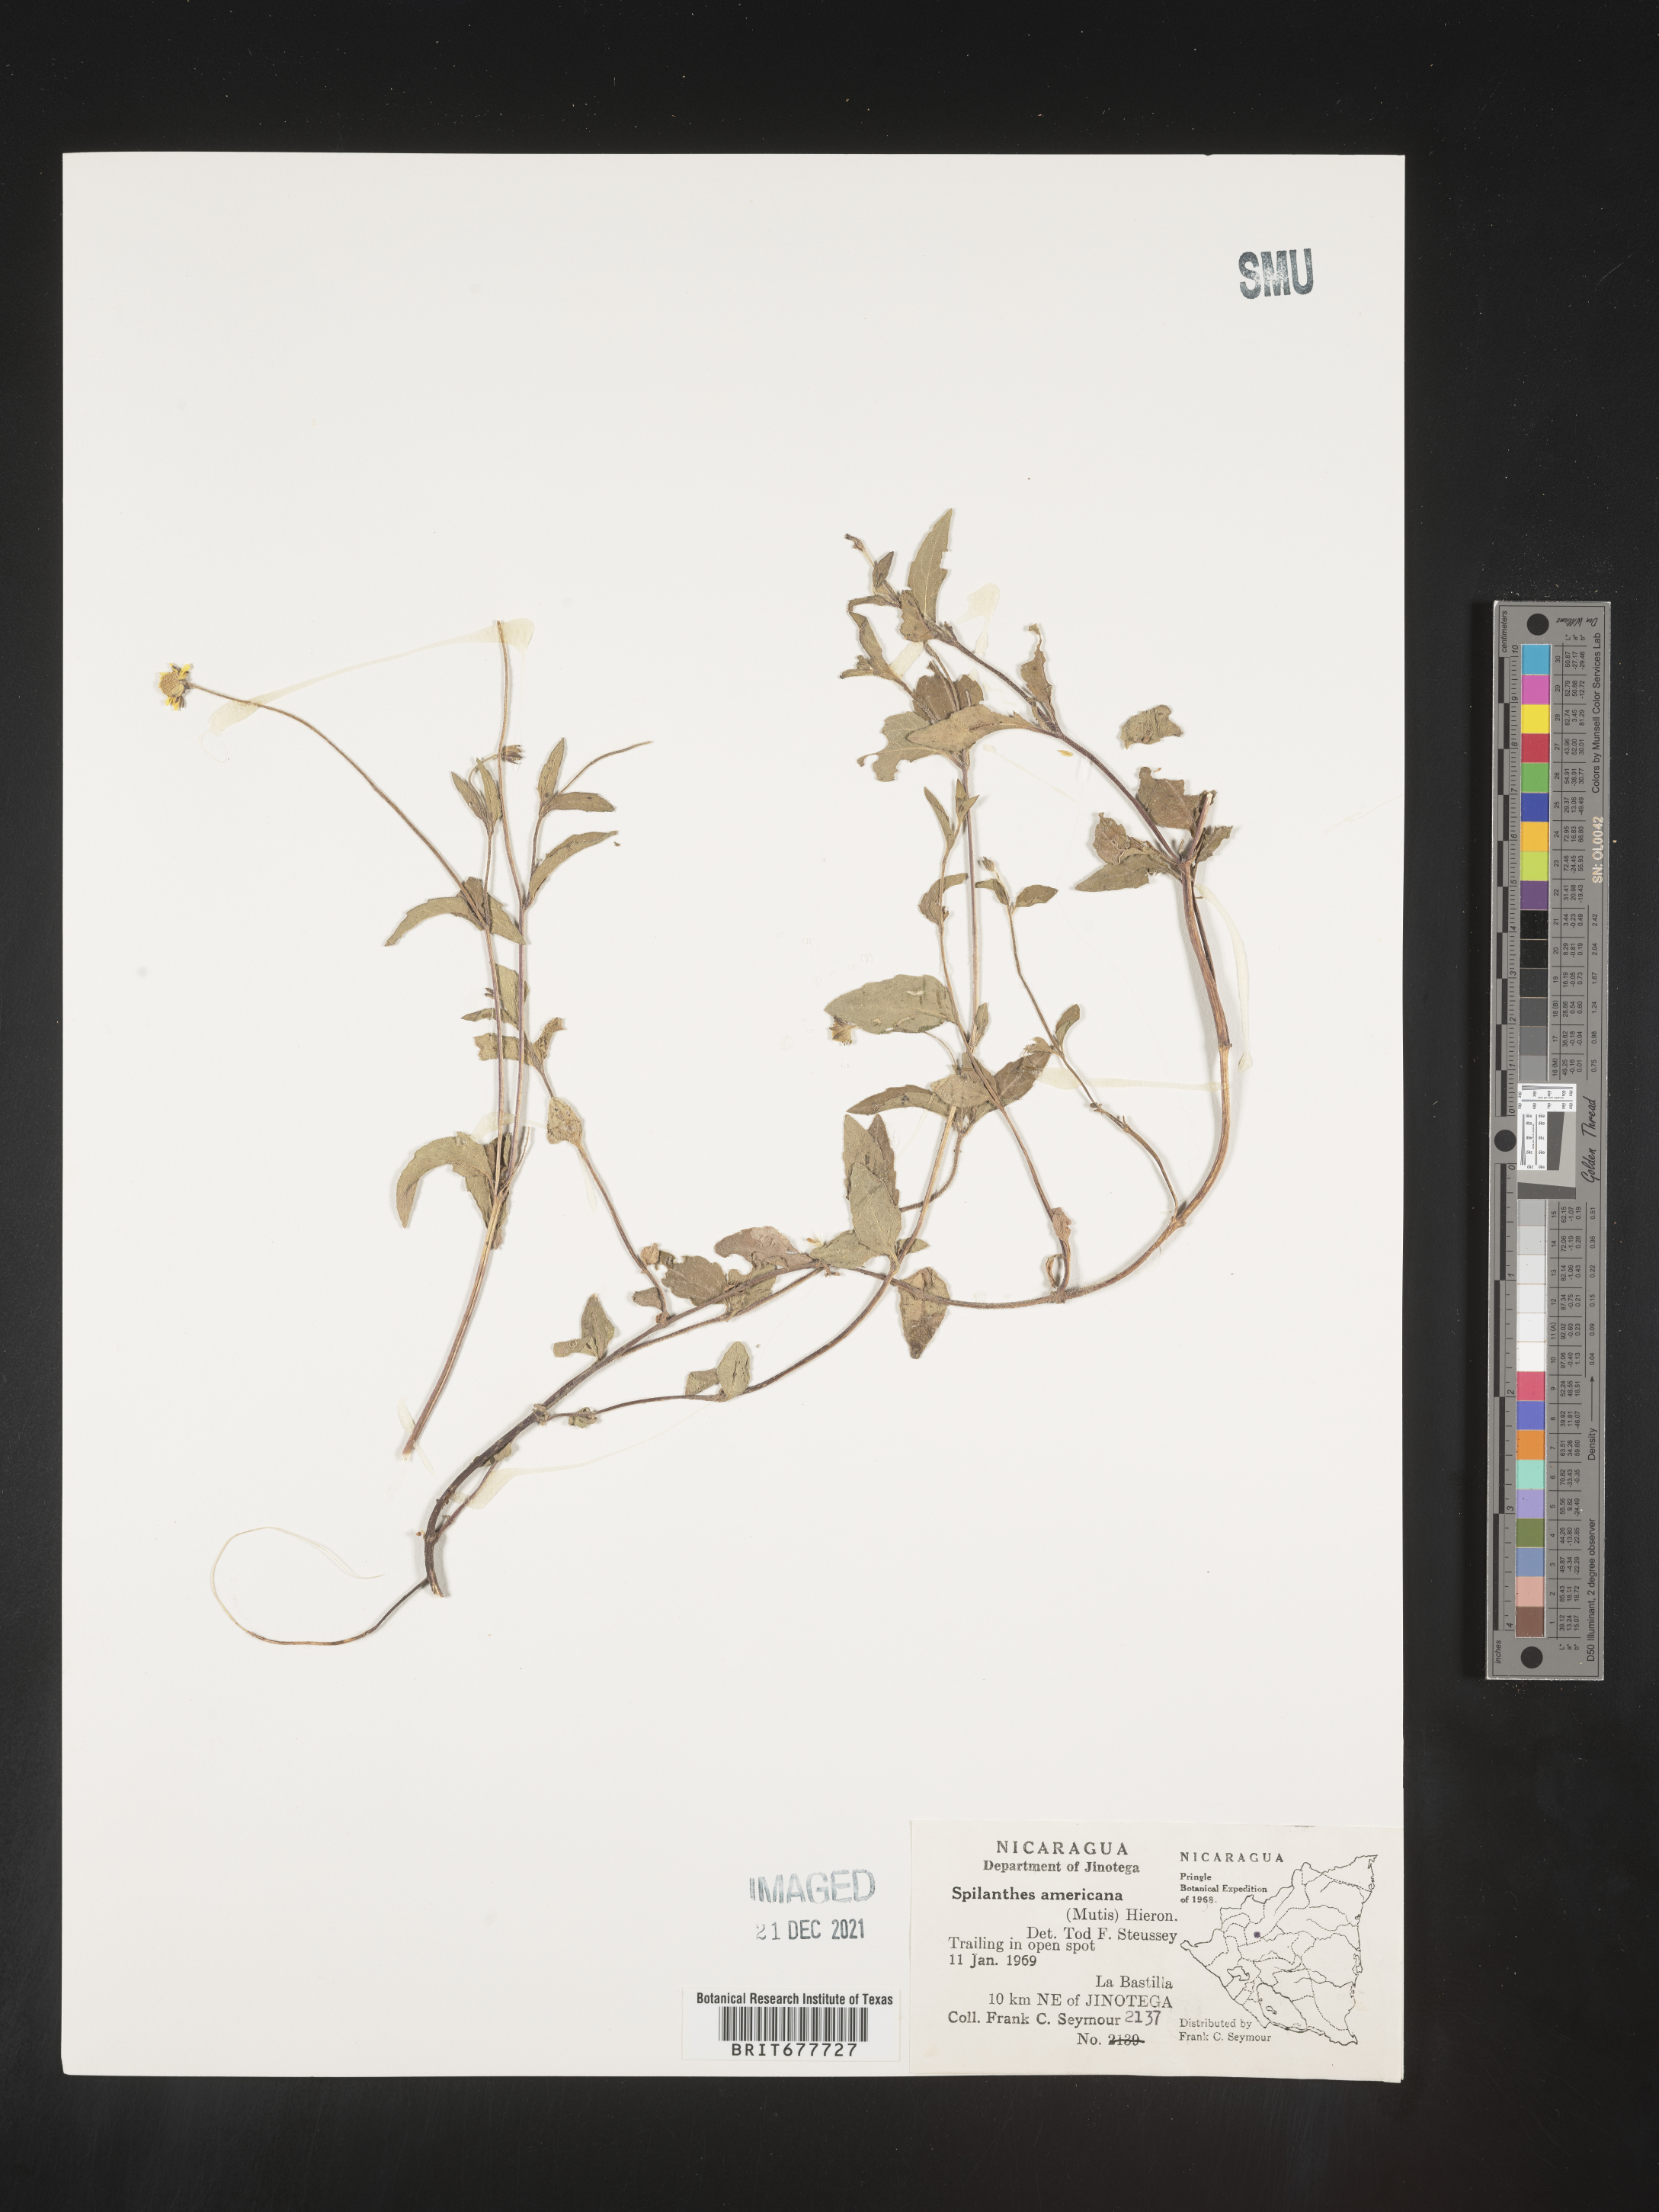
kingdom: Plantae
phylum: Tracheophyta
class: Magnoliopsida
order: Asterales
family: Asteraceae
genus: Spilanthes
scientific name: Spilanthes
